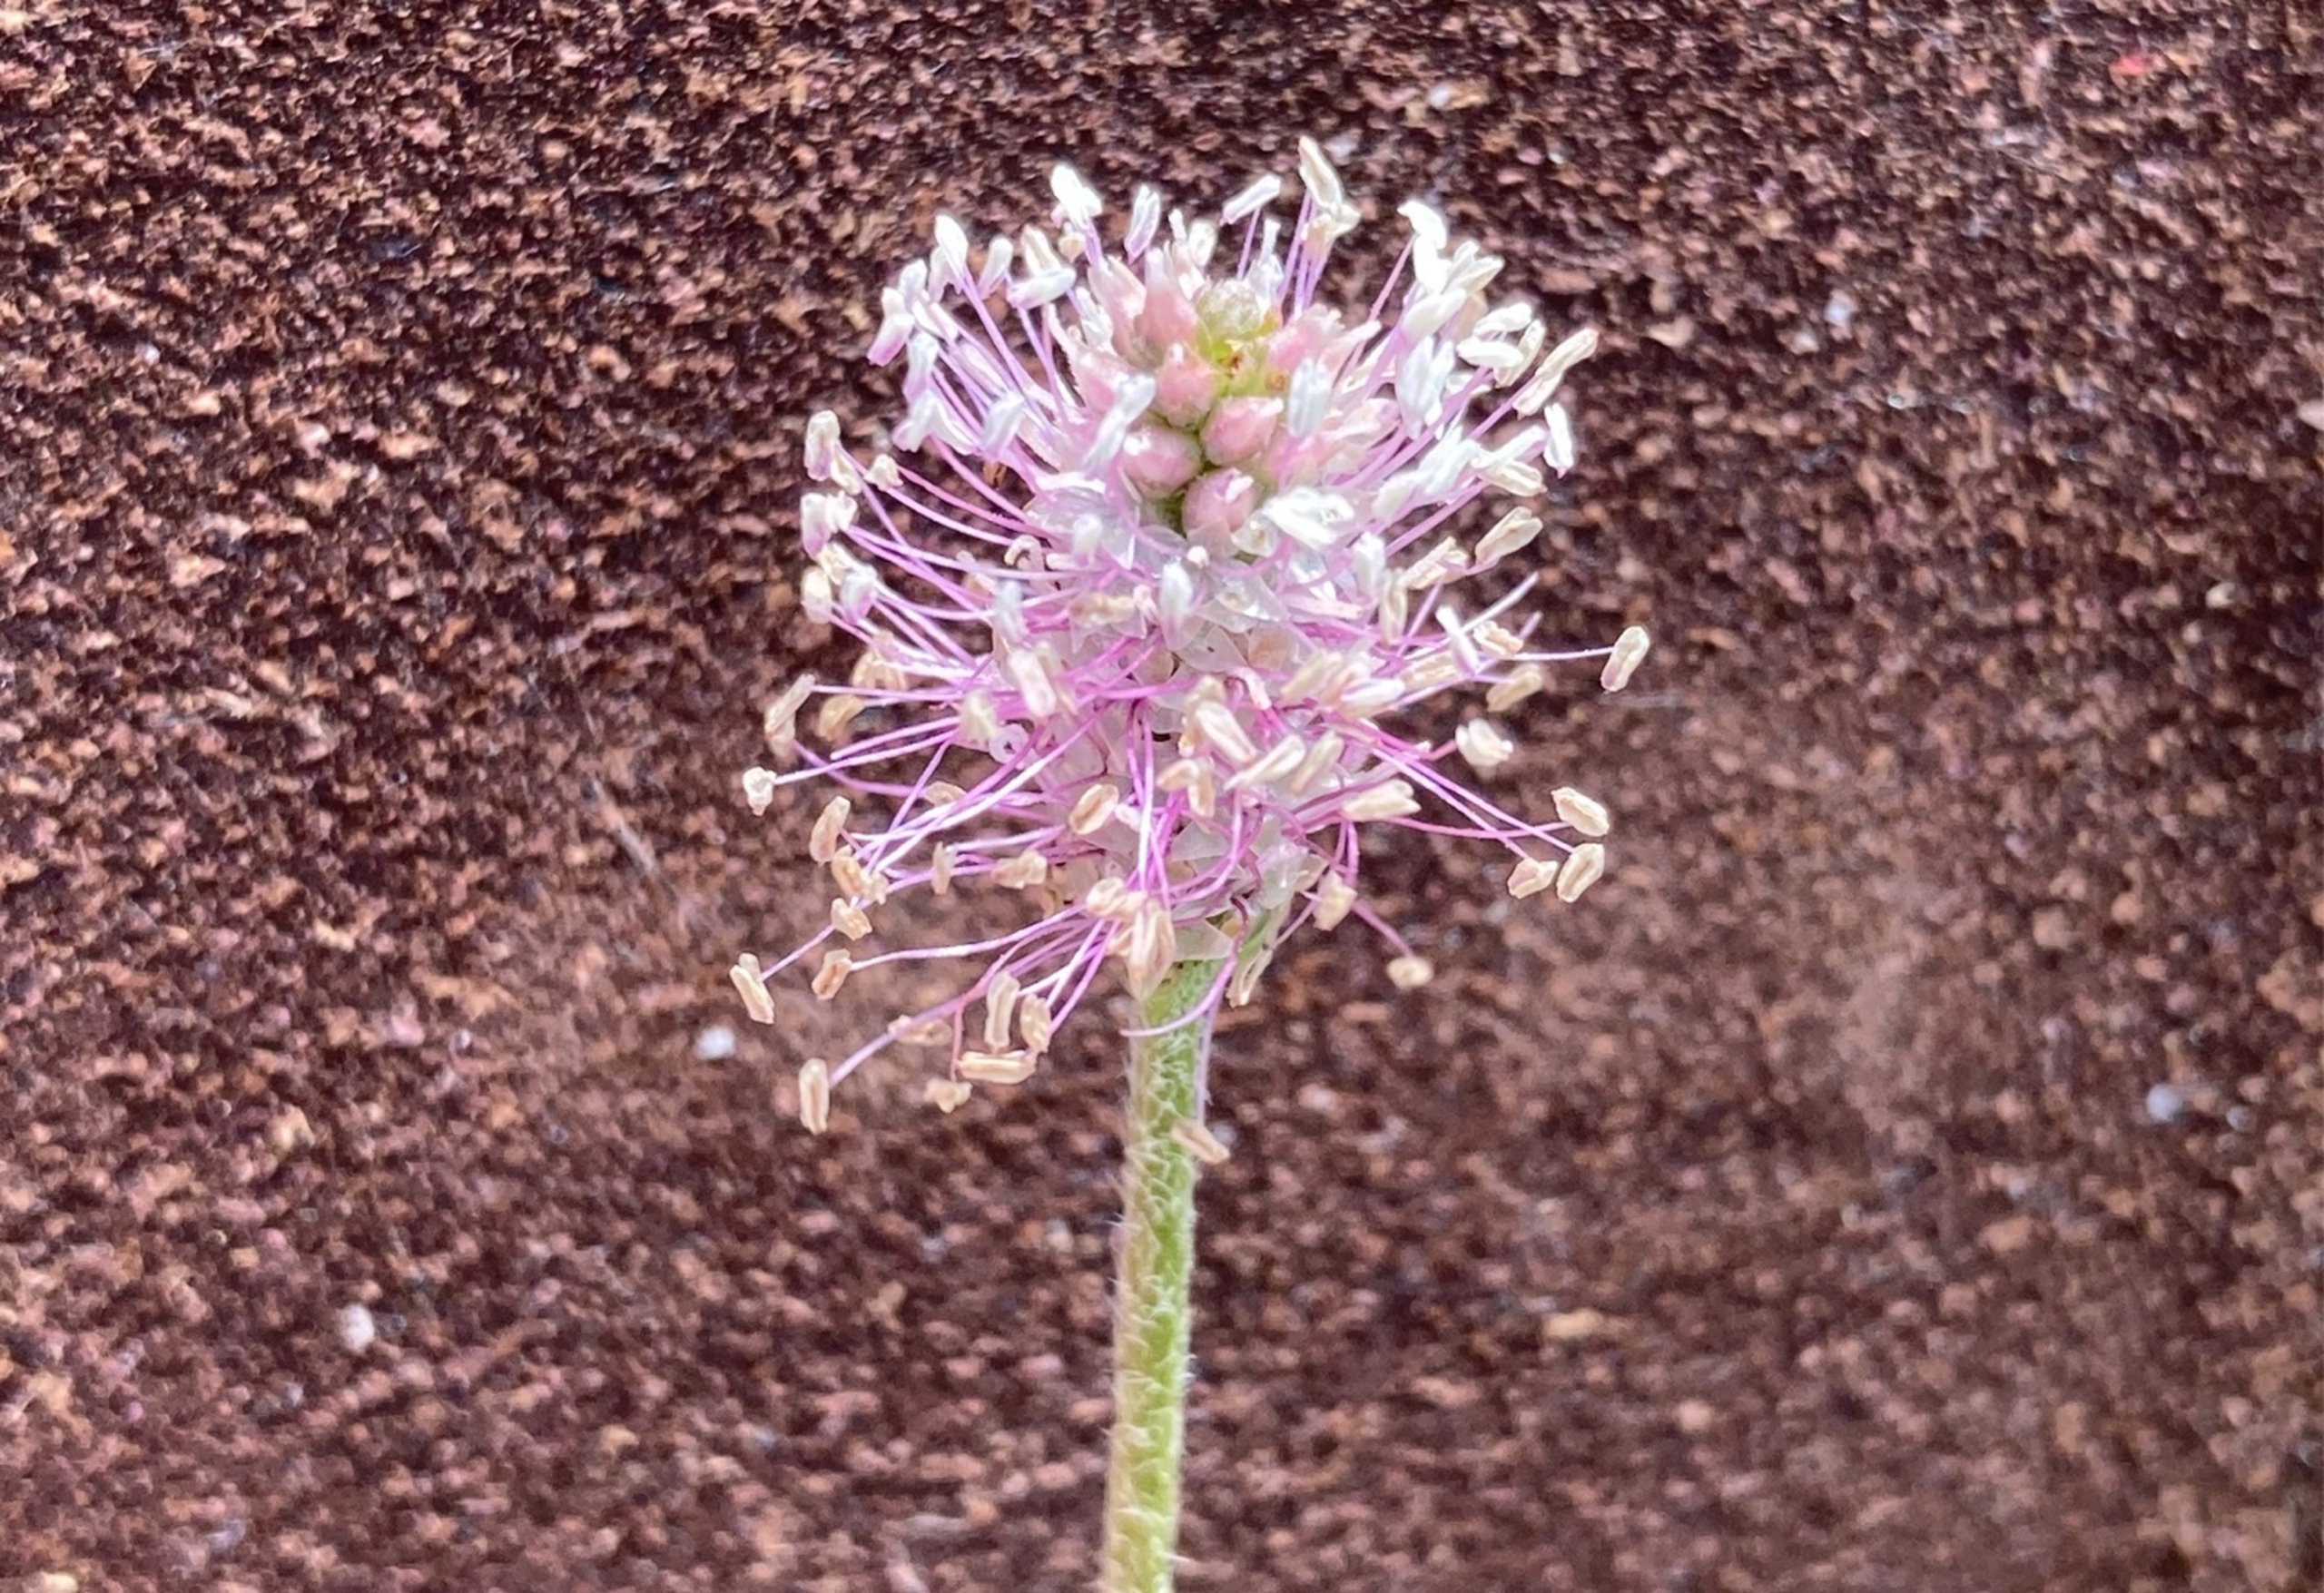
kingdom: Plantae
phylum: Tracheophyta
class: Magnoliopsida
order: Lamiales
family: Plantaginaceae
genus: Plantago
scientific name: Plantago media
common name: Dunet vejbred
